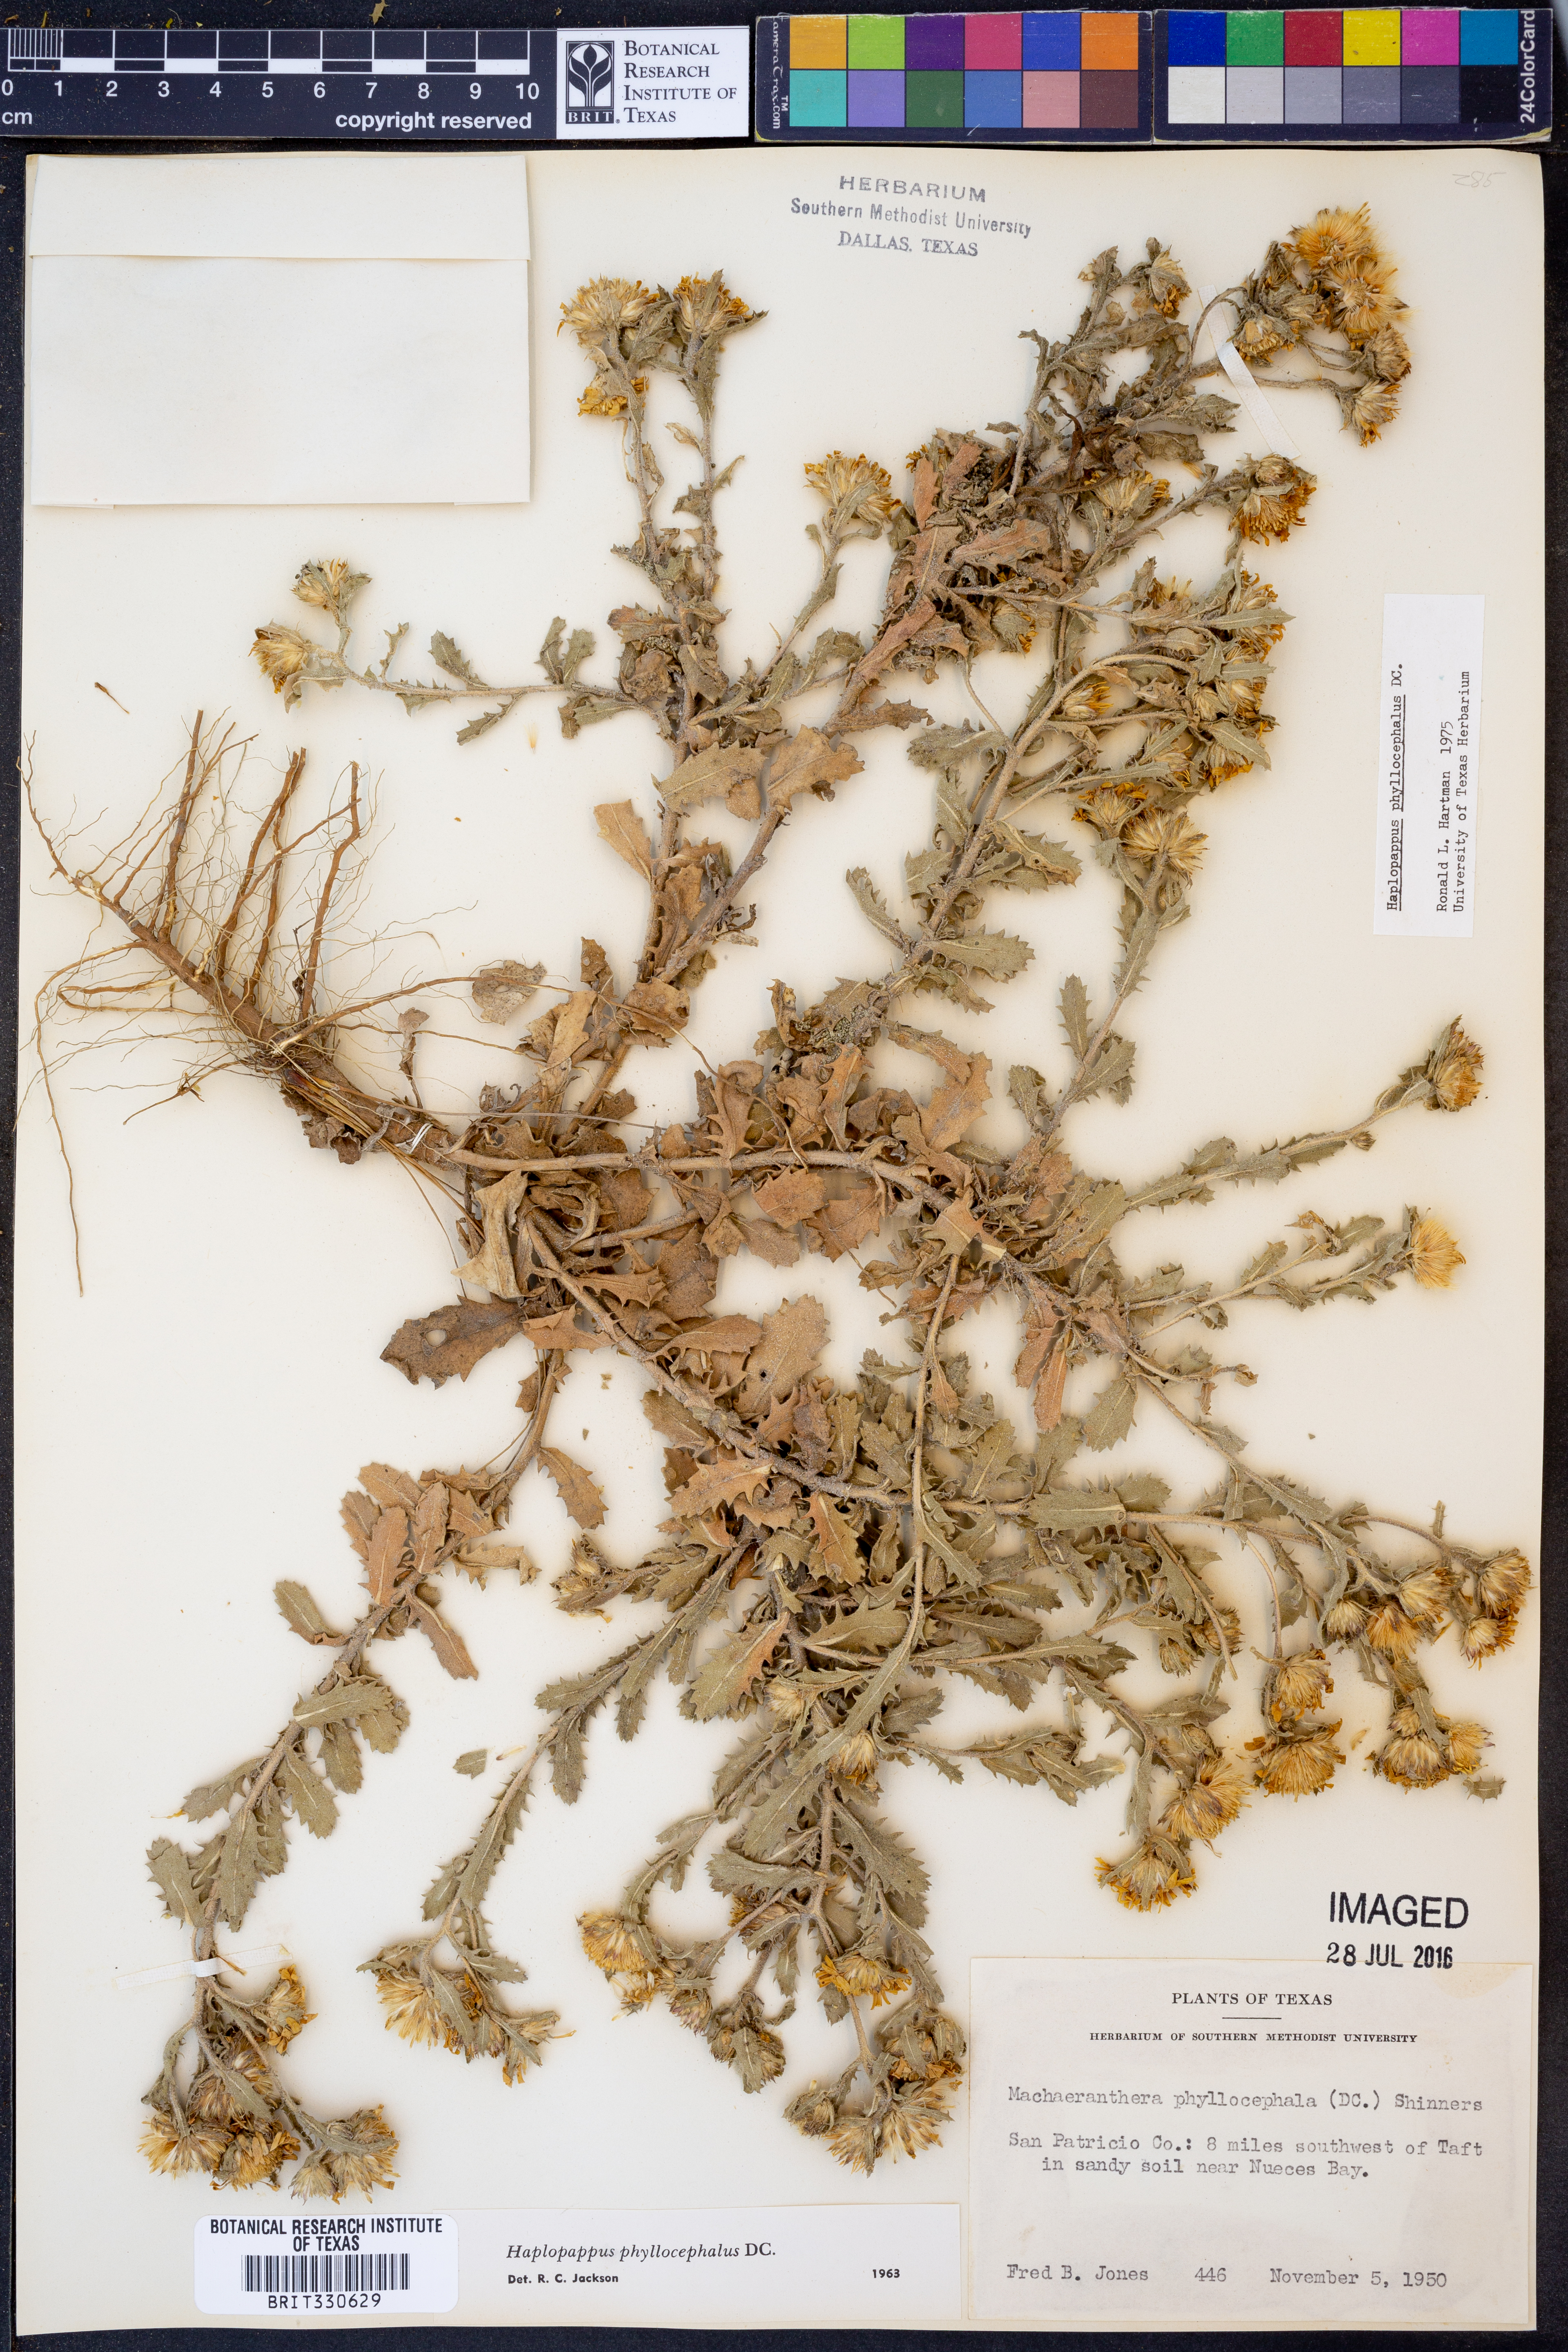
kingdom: Plantae
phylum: Tracheophyta
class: Magnoliopsida
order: Asterales
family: Asteraceae
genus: Rayjacksonia
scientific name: Rayjacksonia phyllocephala
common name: Gulf coast camphor daisy
